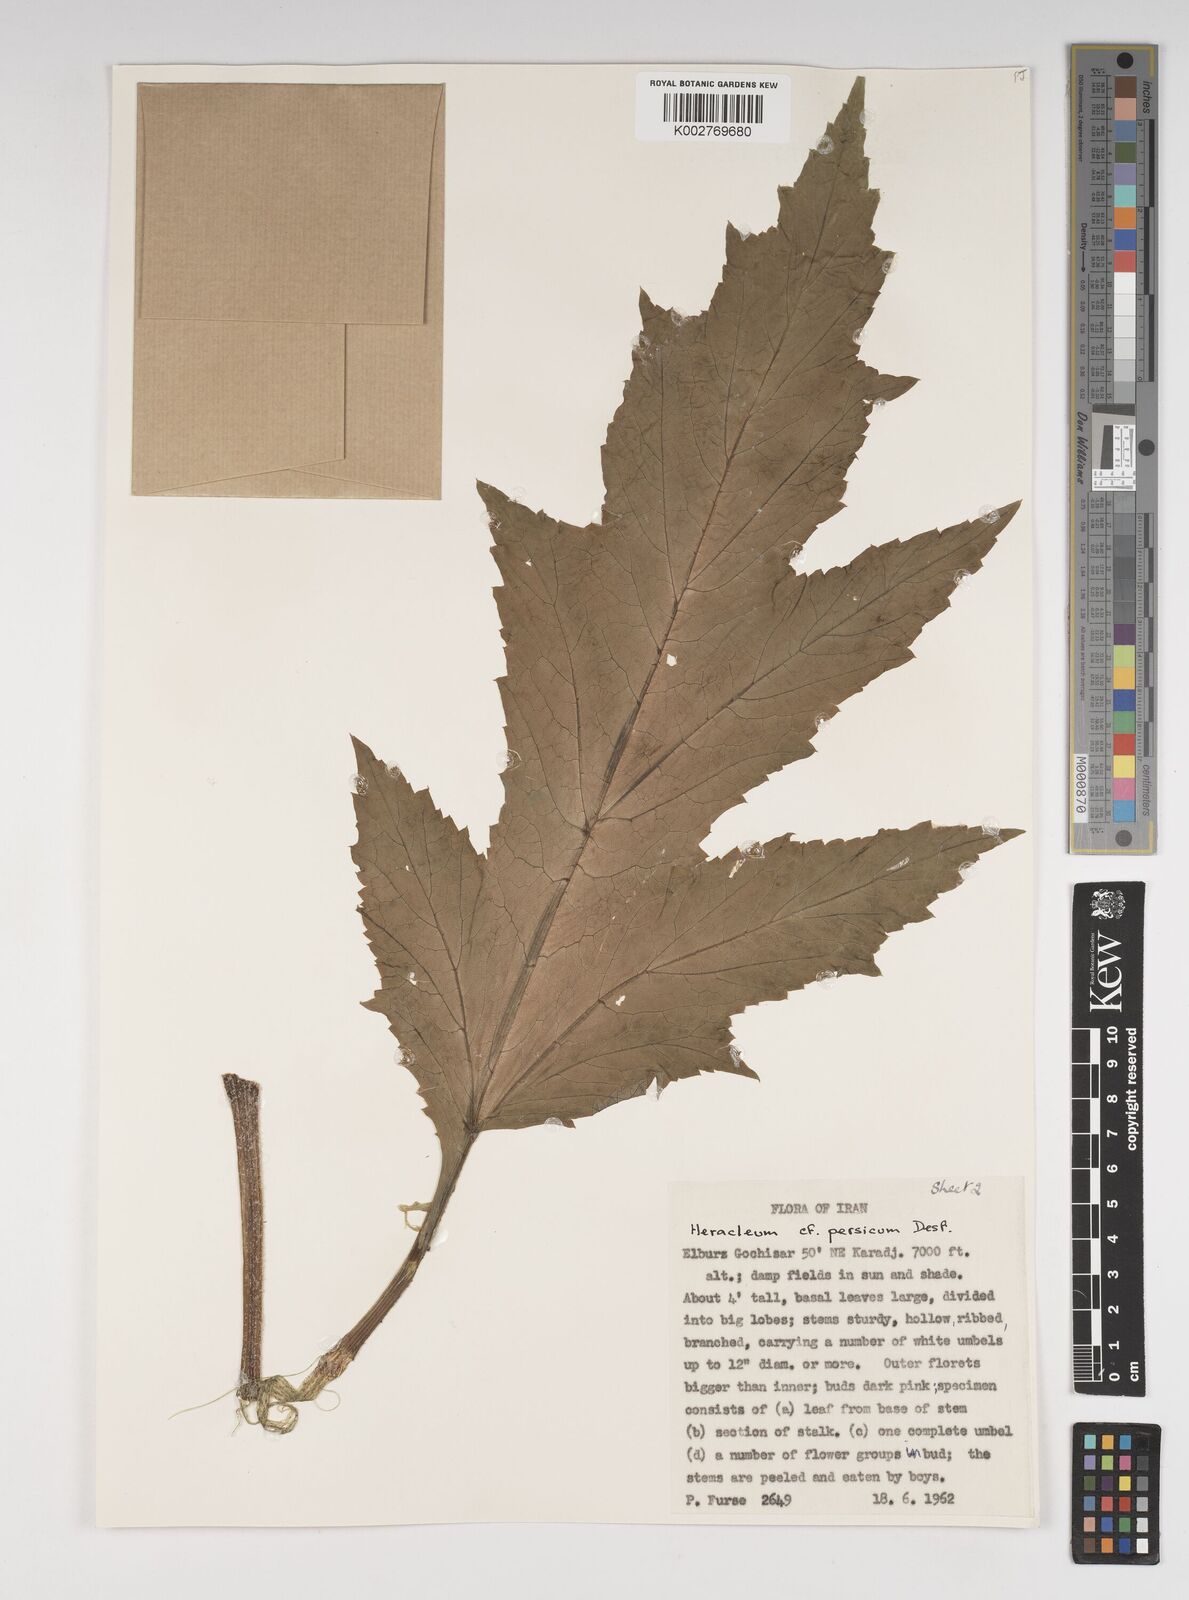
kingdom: Plantae
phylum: Tracheophyta
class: Magnoliopsida
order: Apiales
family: Apiaceae
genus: Heracleum
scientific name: Heracleum persicum
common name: Persian hogweed
